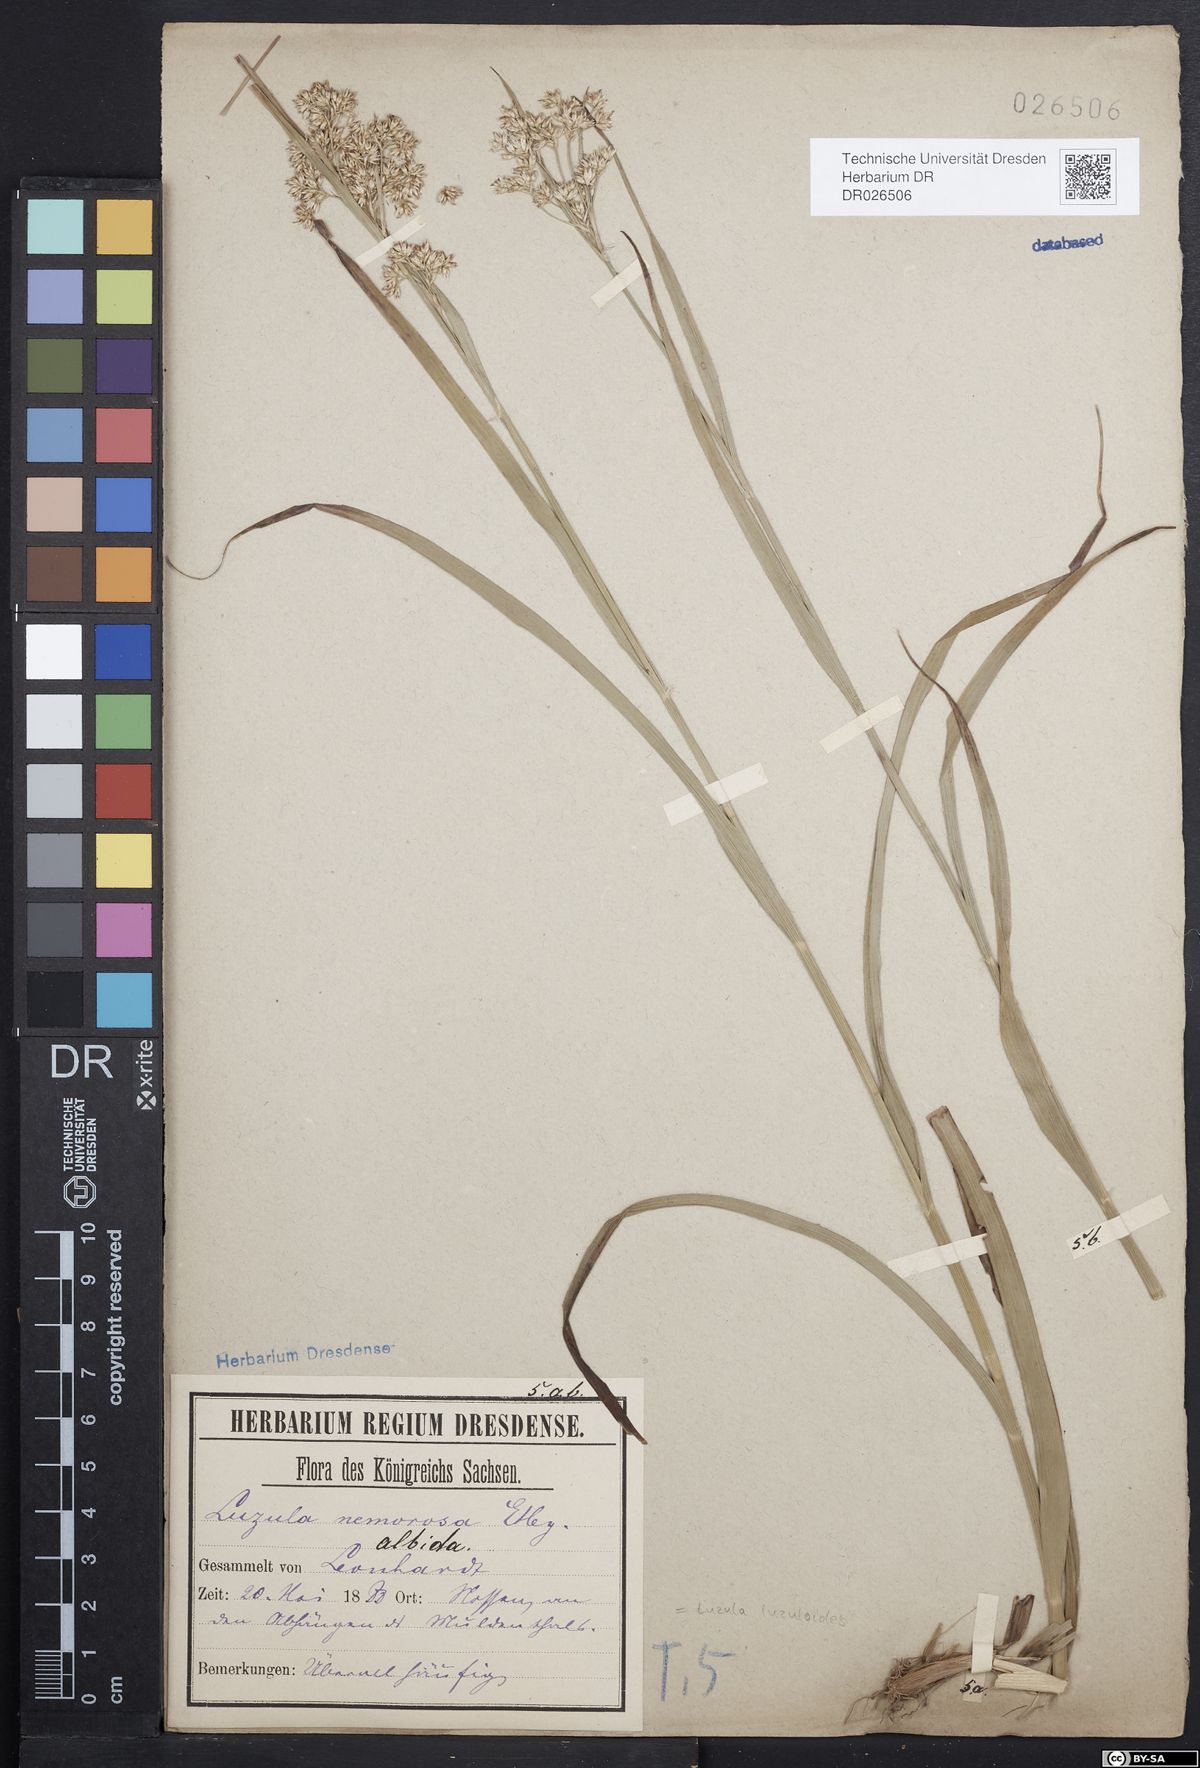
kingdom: Plantae
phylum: Tracheophyta
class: Liliopsida
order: Poales
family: Juncaceae
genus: Luzula
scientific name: Luzula luzuloides
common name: White wood-rush
